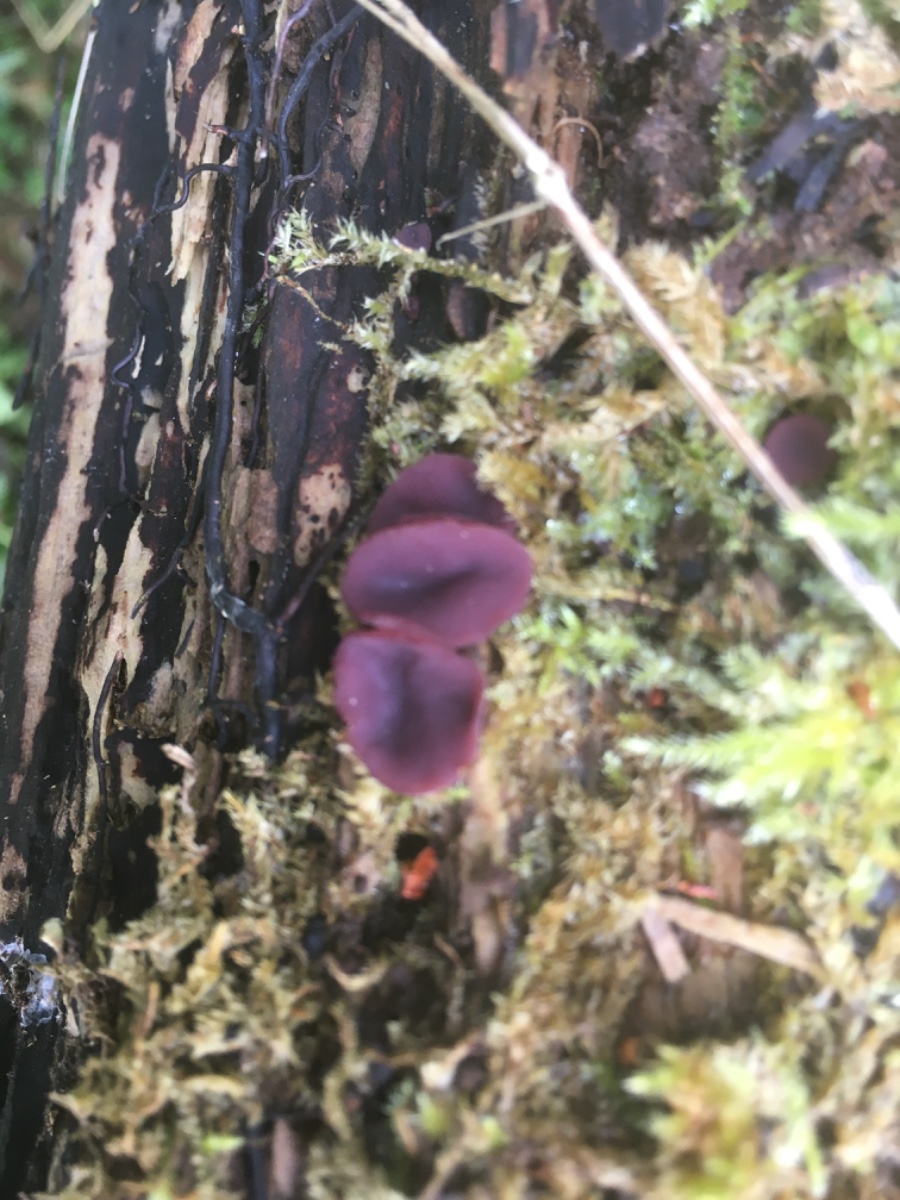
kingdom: Fungi
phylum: Ascomycota
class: Leotiomycetes
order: Helotiales
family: Gelatinodiscaceae
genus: Ascocoryne
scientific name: Ascocoryne cylichnium
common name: stor sejskive
